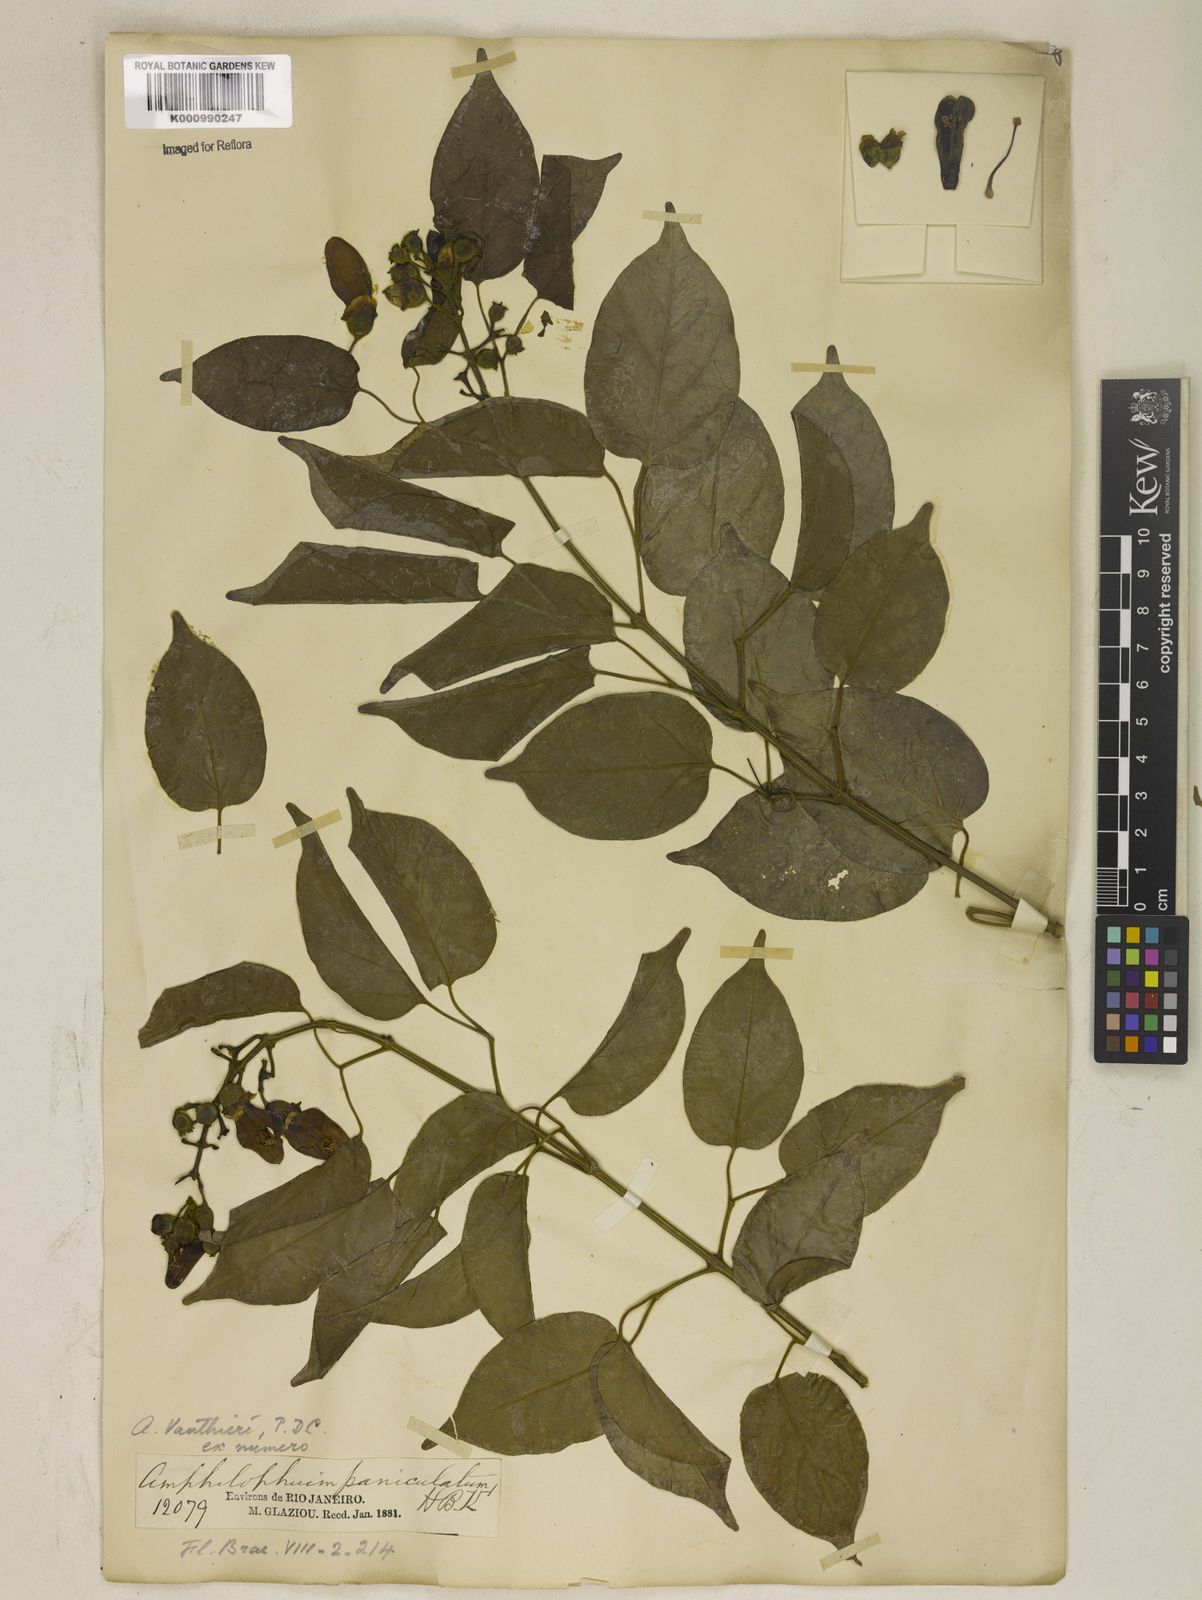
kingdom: Plantae
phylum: Tracheophyta
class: Magnoliopsida
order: Lamiales
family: Bignoniaceae
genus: Amphilophium
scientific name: Amphilophium paniculatum
